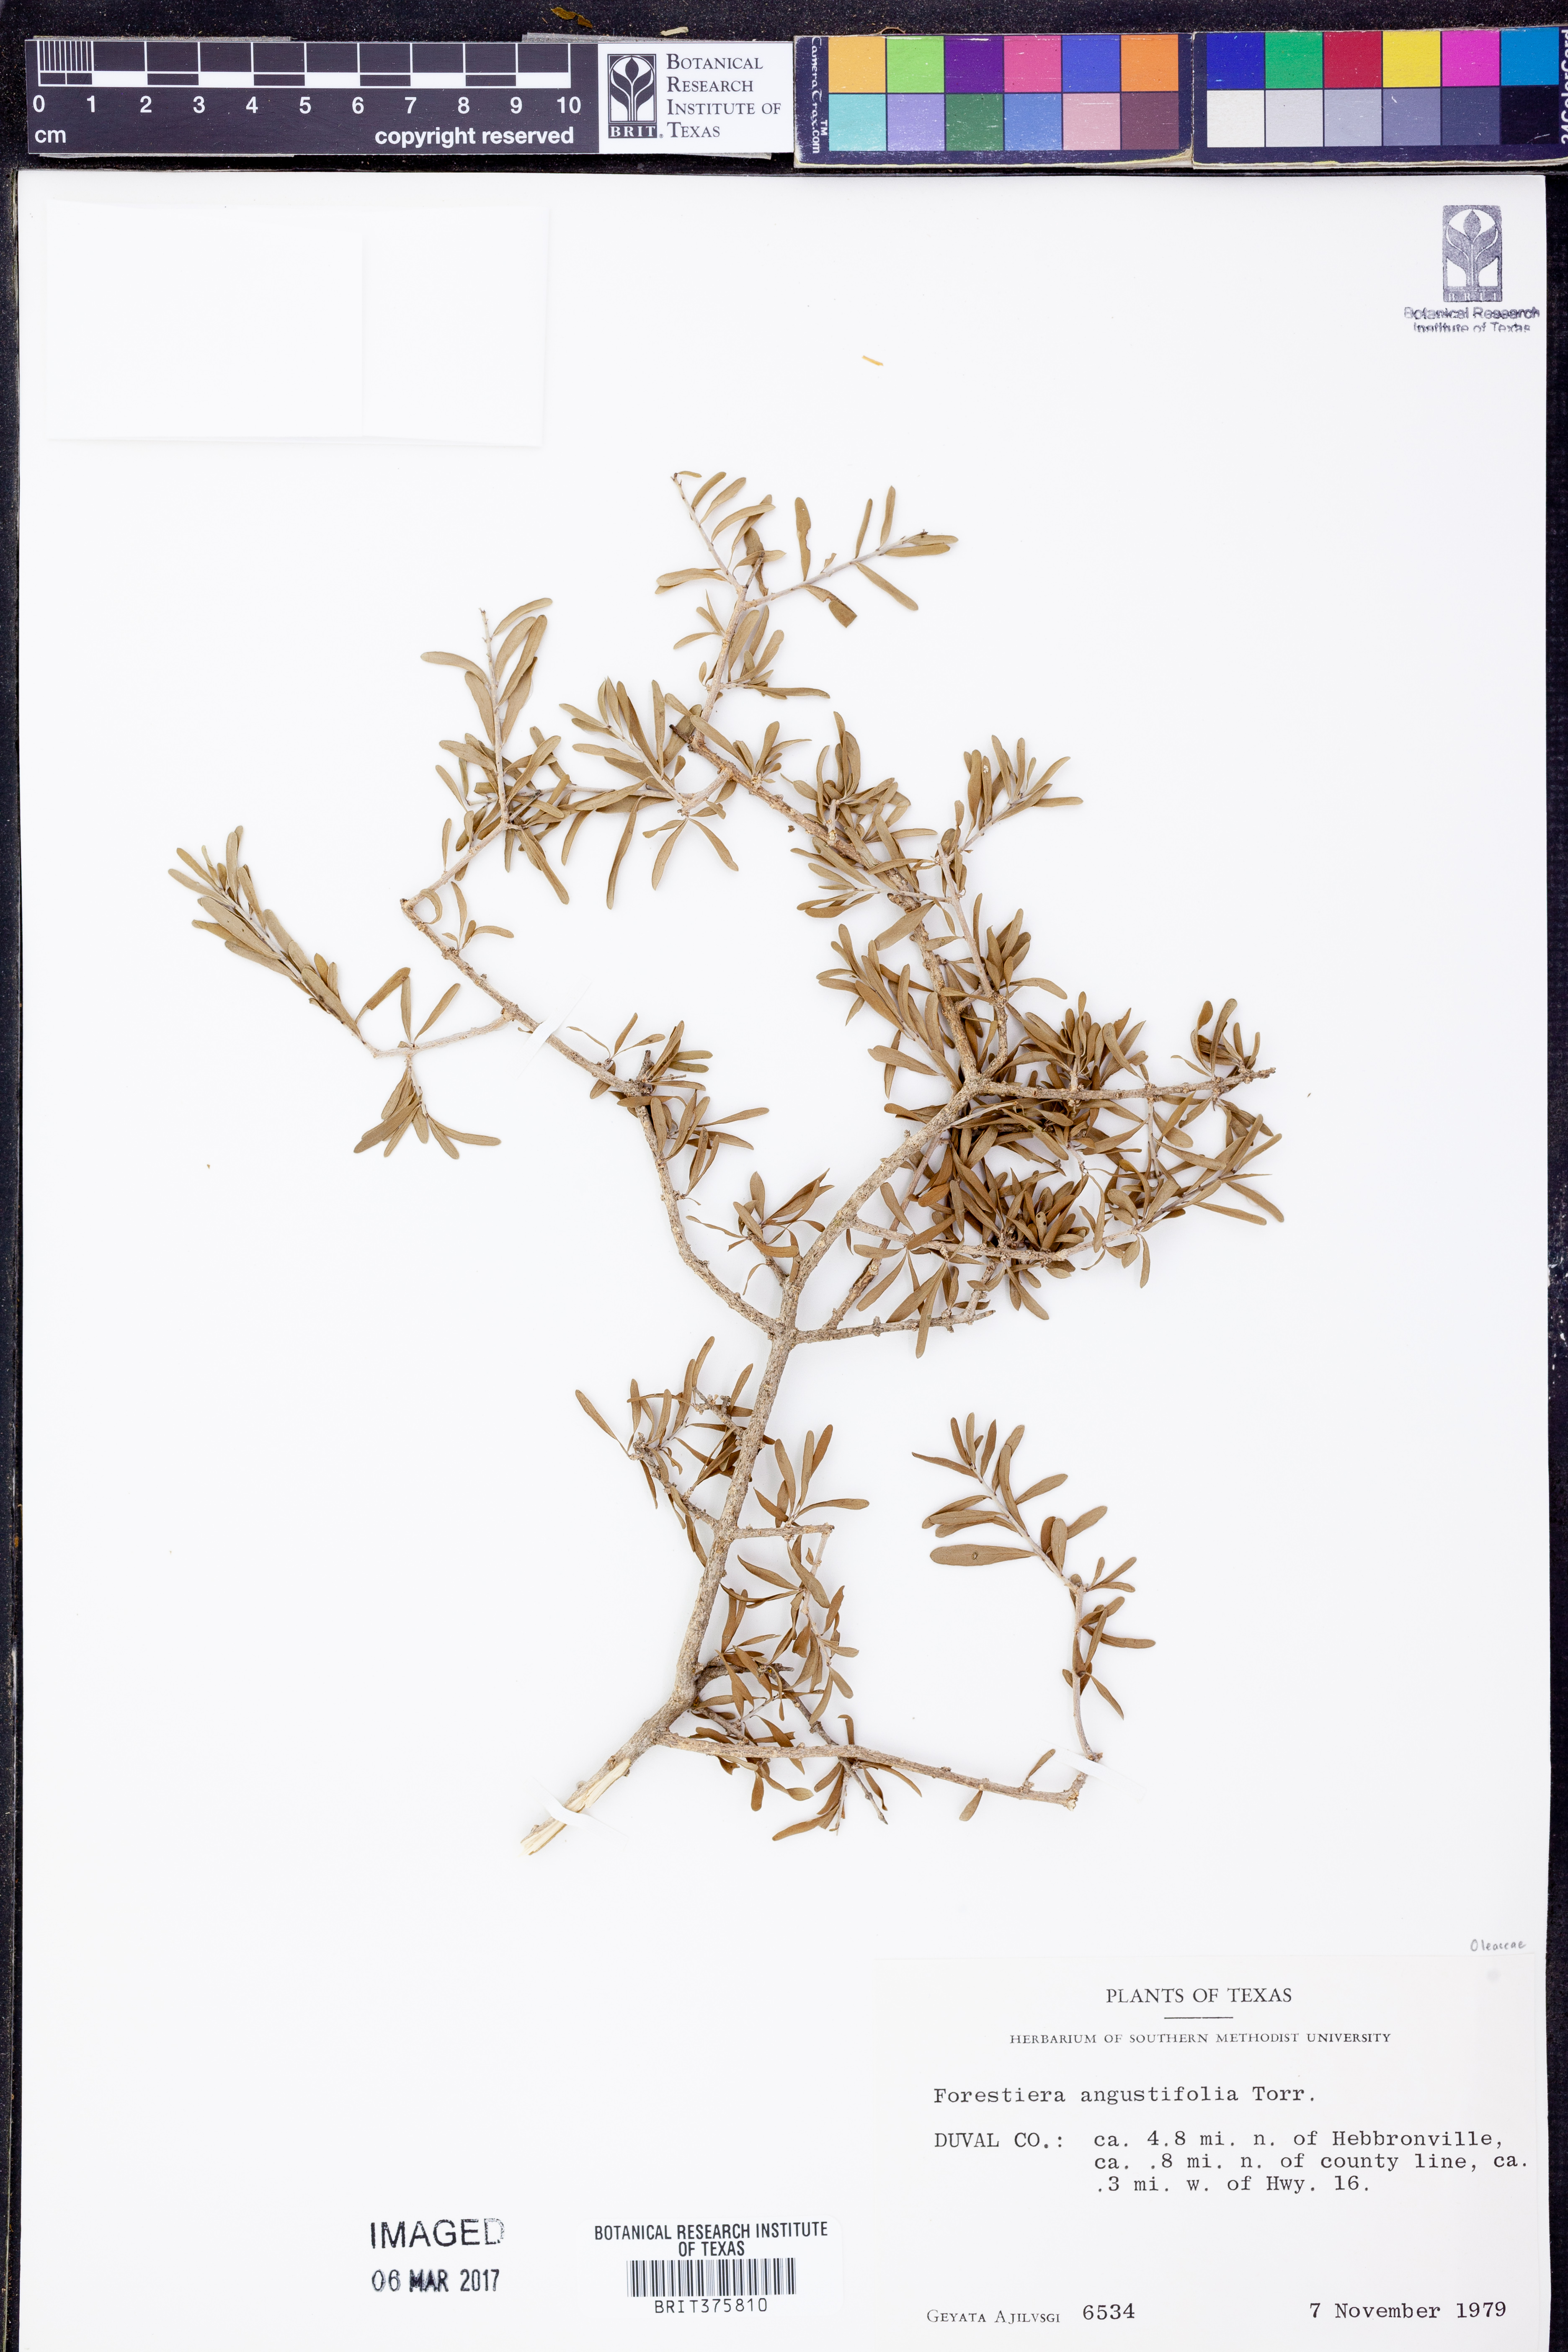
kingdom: Plantae
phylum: Tracheophyta
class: Magnoliopsida
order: Lamiales
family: Oleaceae
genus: Forestiera
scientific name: Forestiera angustifolia
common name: Elbowbush
